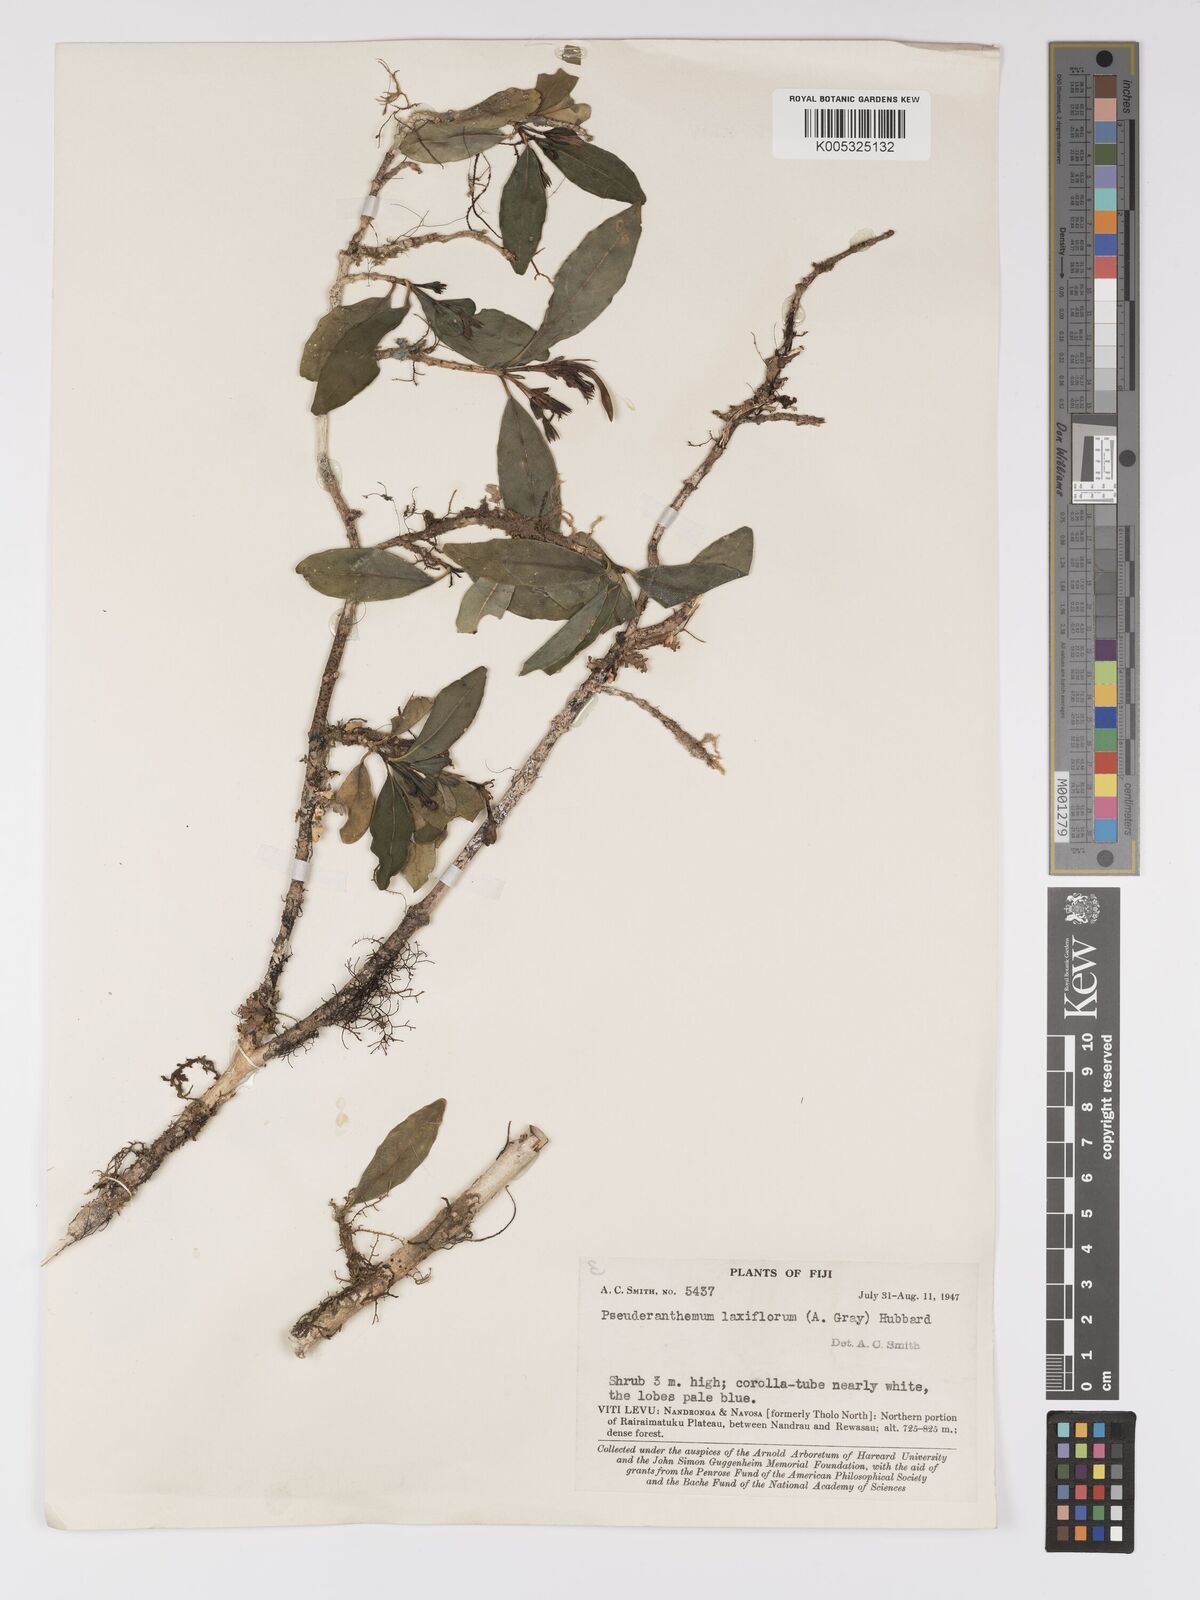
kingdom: Plantae
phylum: Tracheophyta
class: Magnoliopsida
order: Lamiales
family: Acanthaceae
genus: Pseuderanthemum
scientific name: Pseuderanthemum laxiflorum
